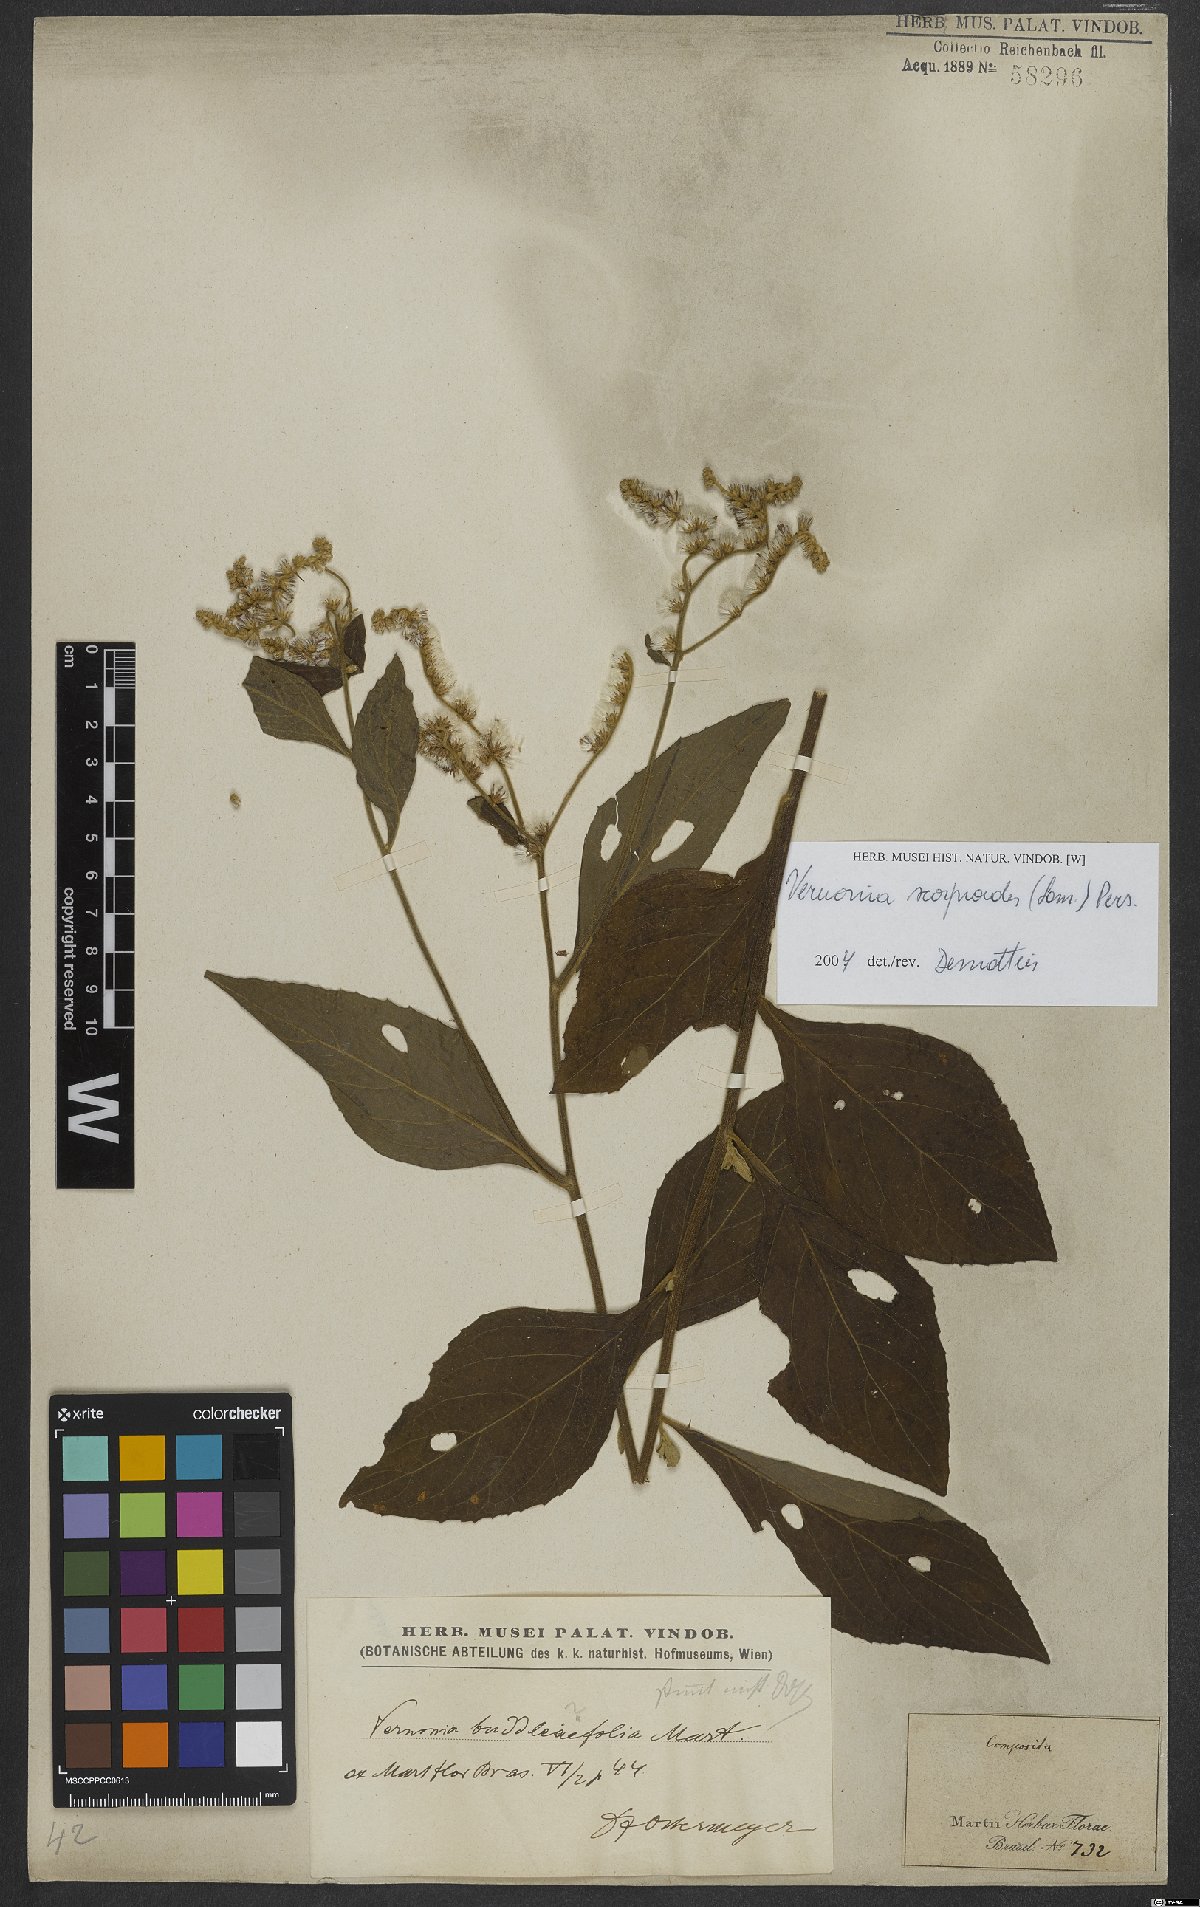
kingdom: Plantae
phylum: Tracheophyta
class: Magnoliopsida
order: Asterales
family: Asteraceae
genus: Cyrtocymura
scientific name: Cyrtocymura scorpioides
